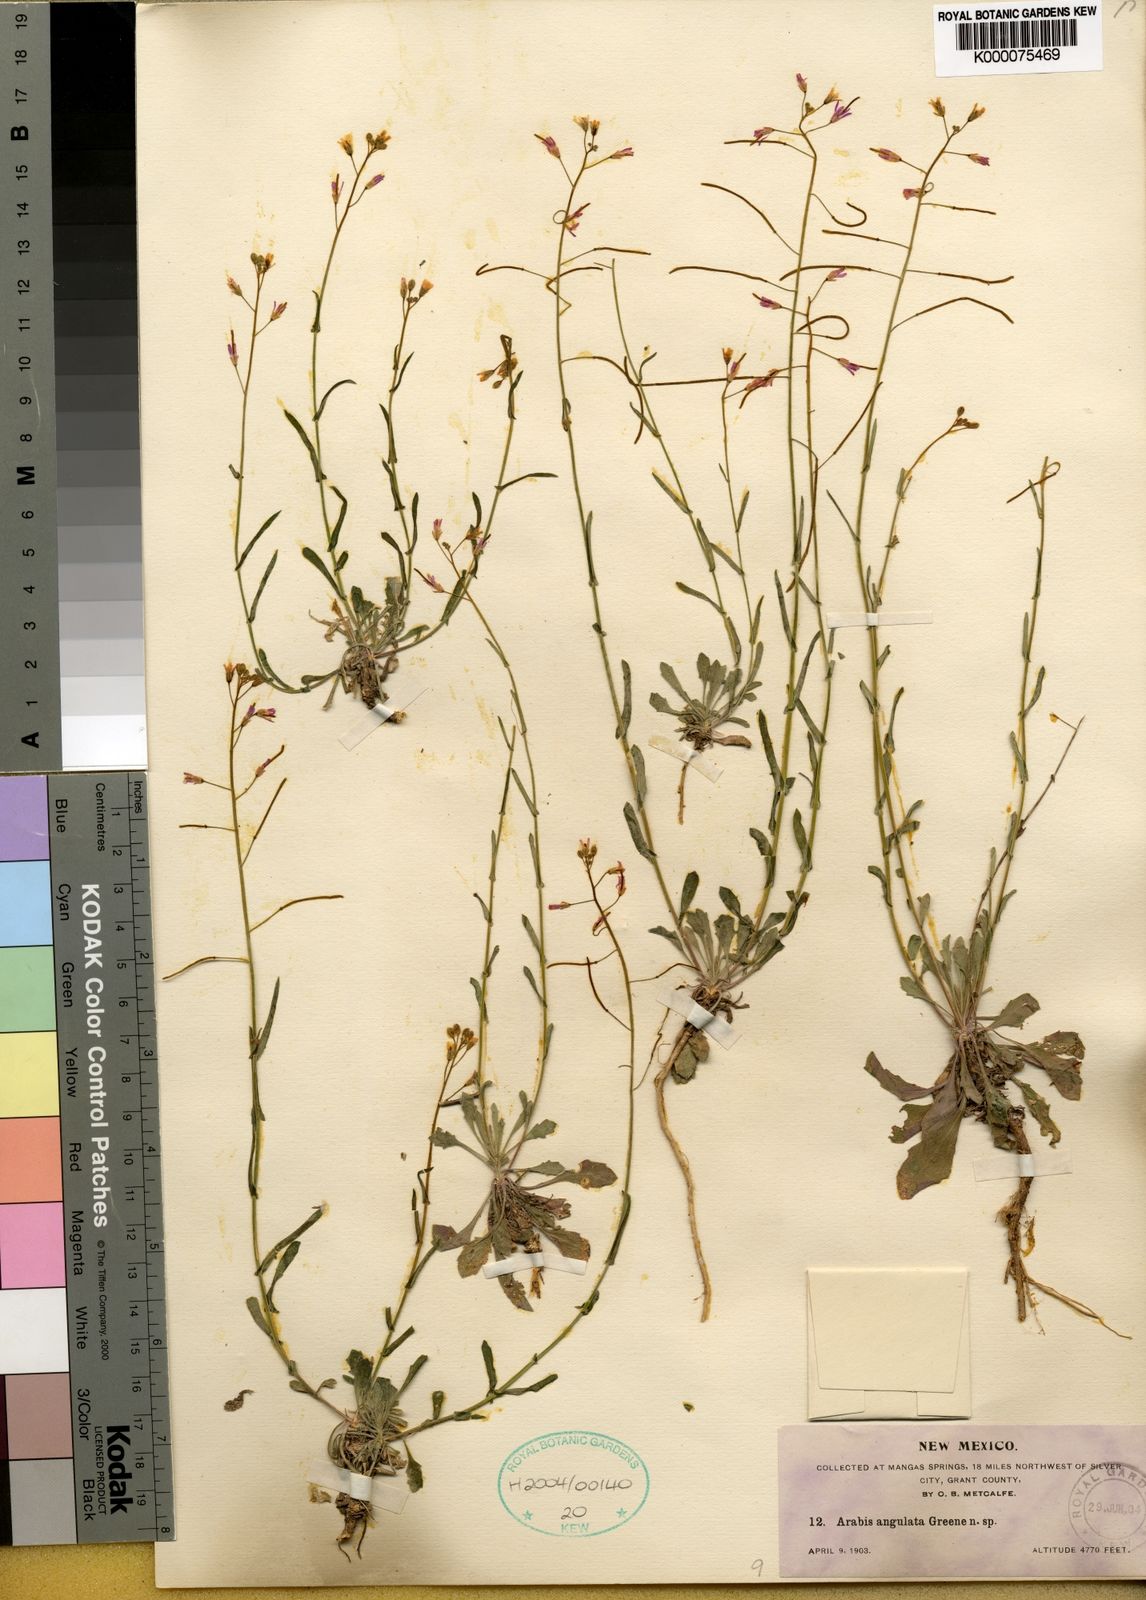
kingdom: Plantae
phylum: Tracheophyta
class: Magnoliopsida
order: Brassicales
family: Brassicaceae
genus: Arabis
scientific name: Arabis
